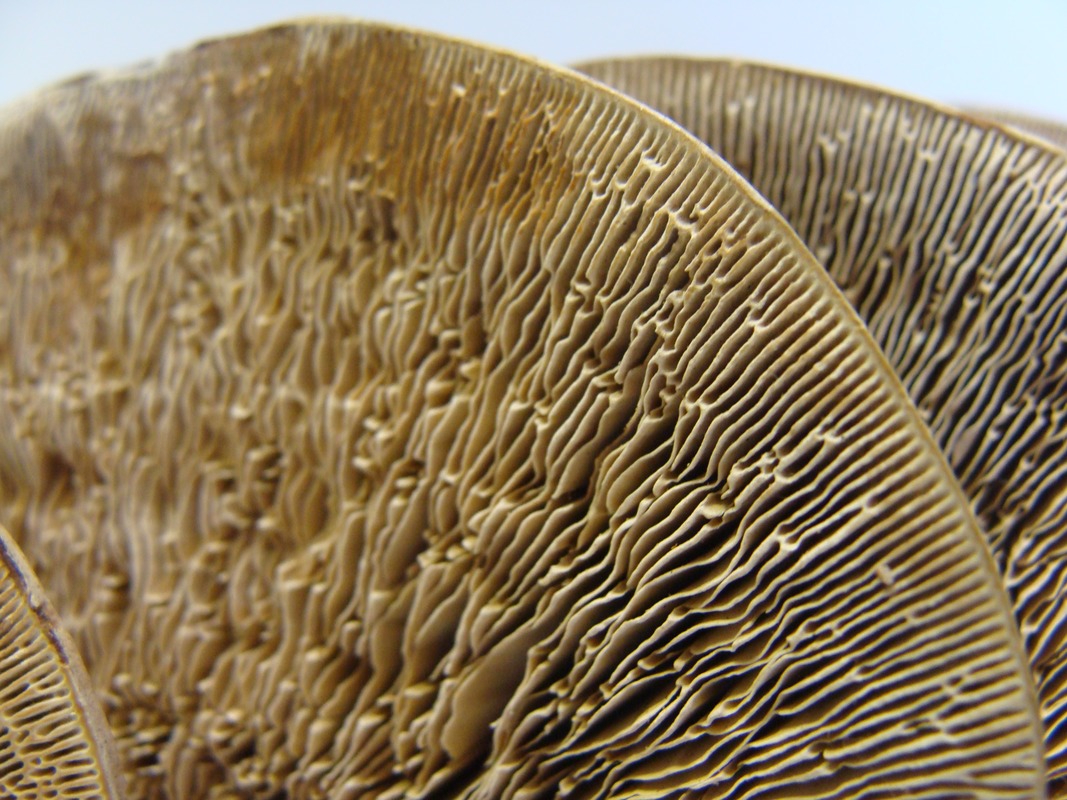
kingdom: Plantae
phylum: Tracheophyta
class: Magnoliopsida
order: Rosales
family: Rosaceae
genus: Prunus
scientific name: Prunus avium
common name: Sweet cherry
